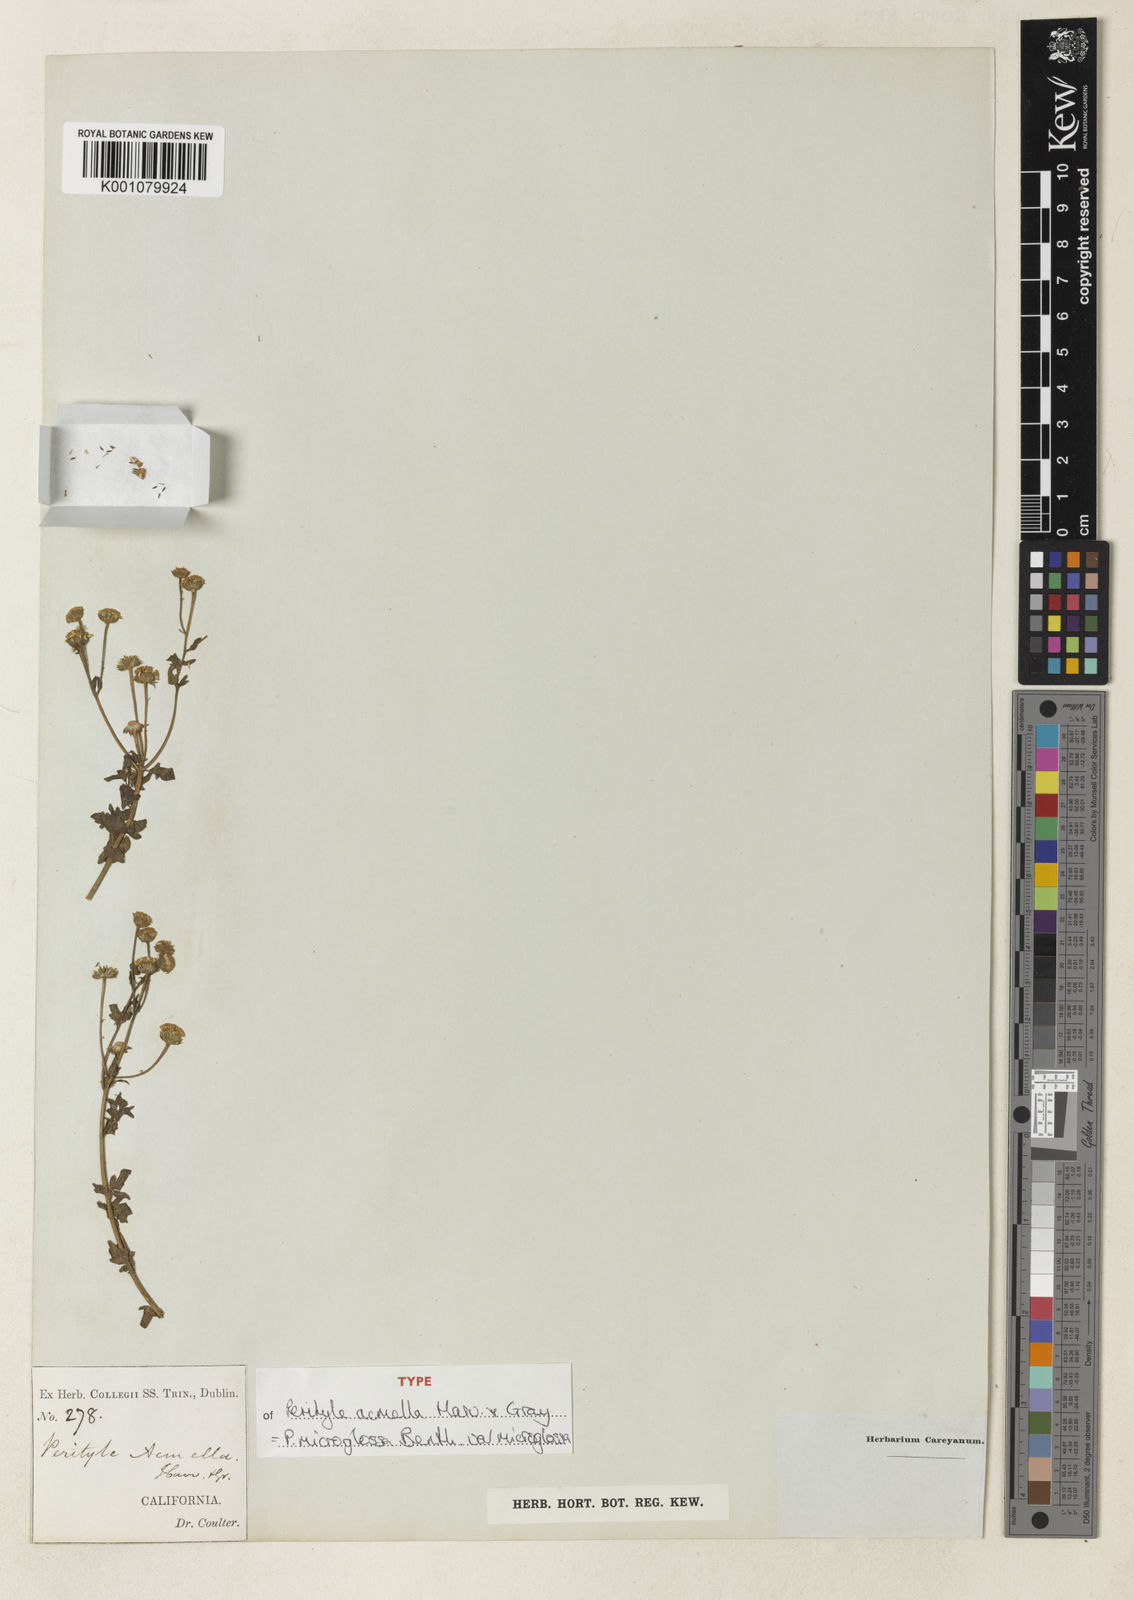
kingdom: Plantae
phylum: Tracheophyta
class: Magnoliopsida
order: Asterales
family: Asteraceae
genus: Galinsogeopsis
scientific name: Galinsogeopsis spilanthoides
